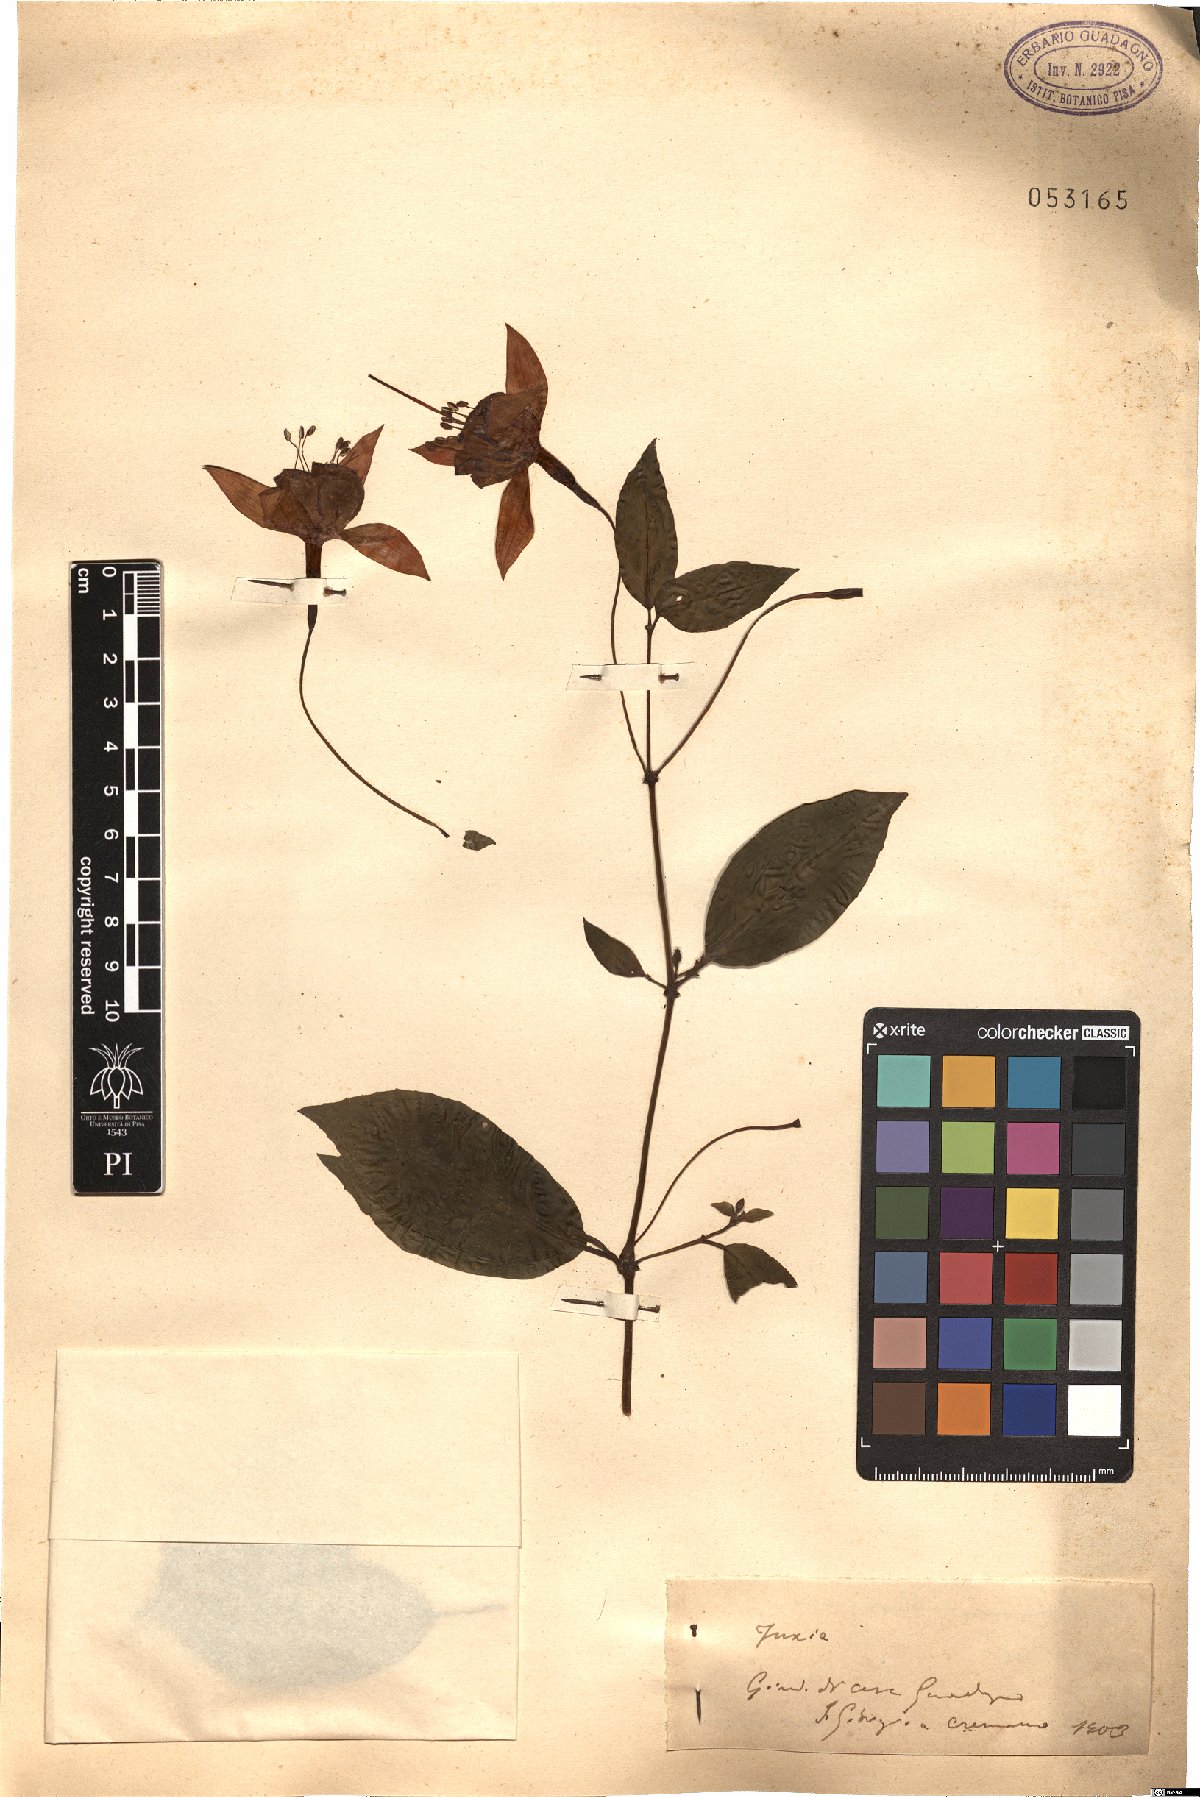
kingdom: Plantae
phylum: Tracheophyta
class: Magnoliopsida
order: Myrtales
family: Onagraceae
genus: Fuchsia
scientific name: Fuchsia
